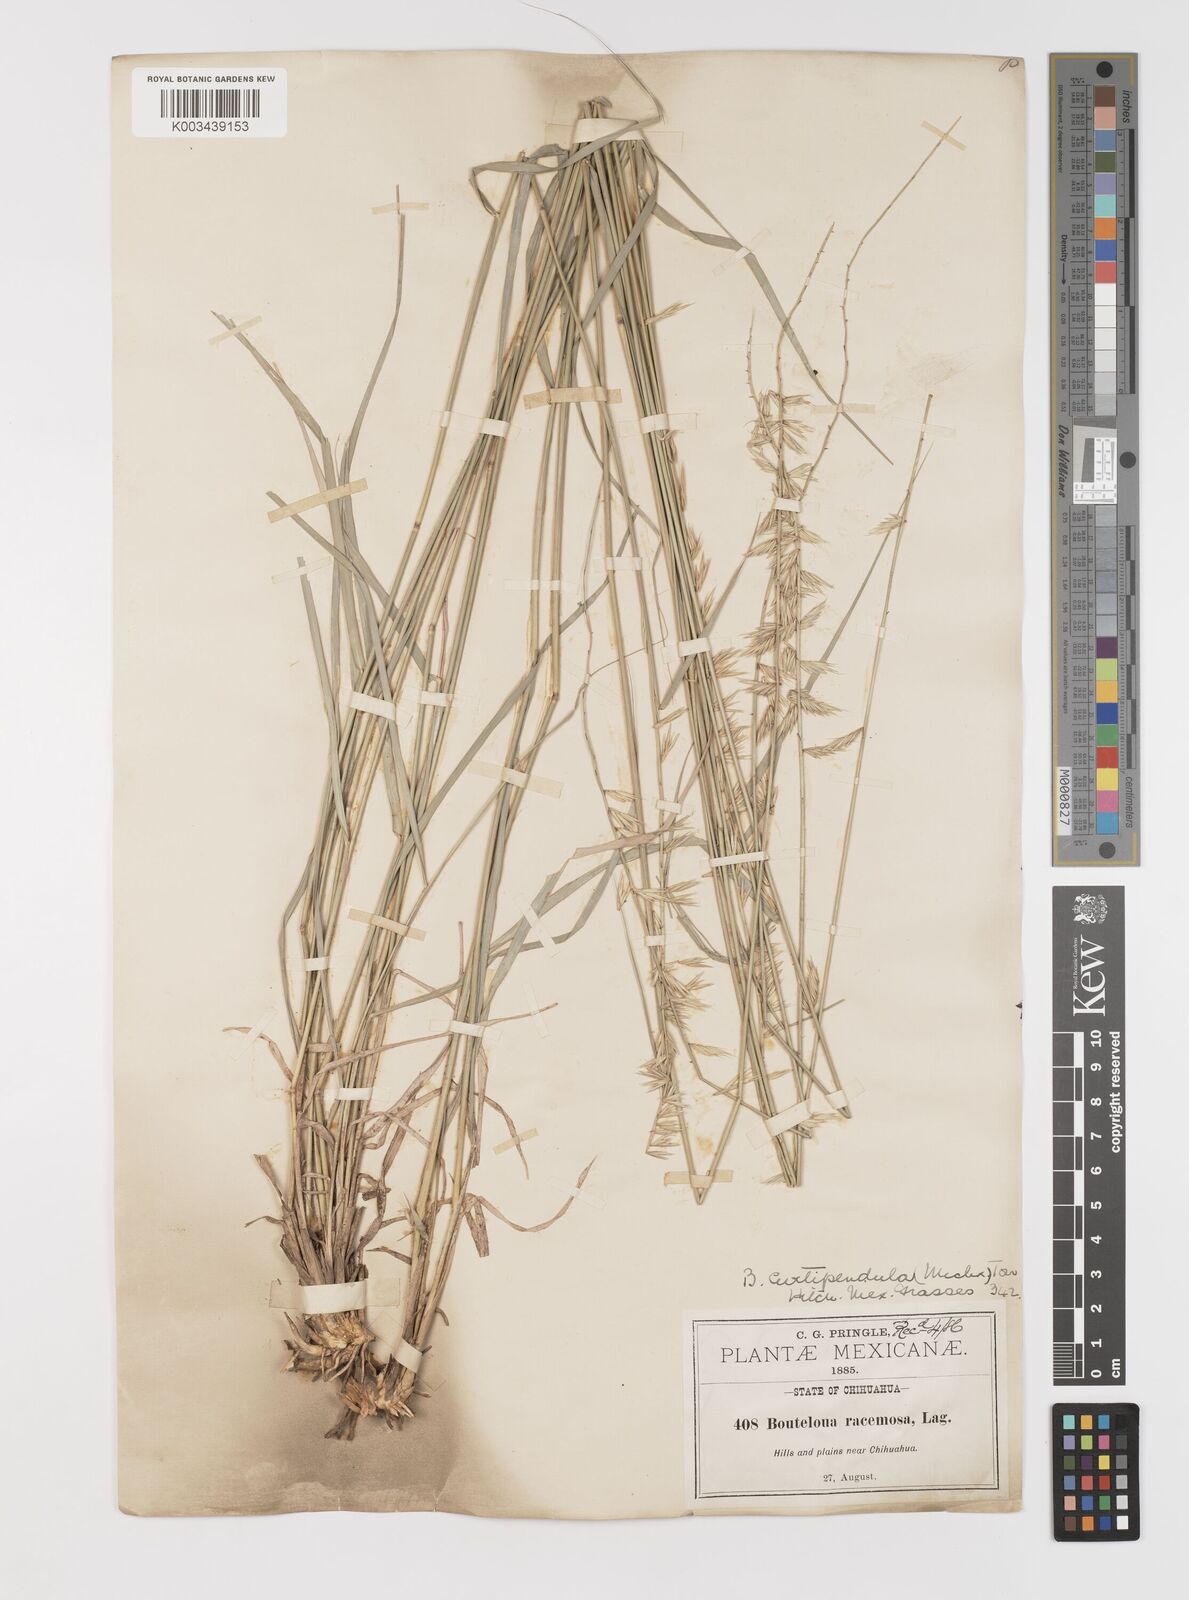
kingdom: Plantae
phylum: Tracheophyta
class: Liliopsida
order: Poales
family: Poaceae
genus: Bouteloua
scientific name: Bouteloua curtipendula
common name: Side-oats grama
